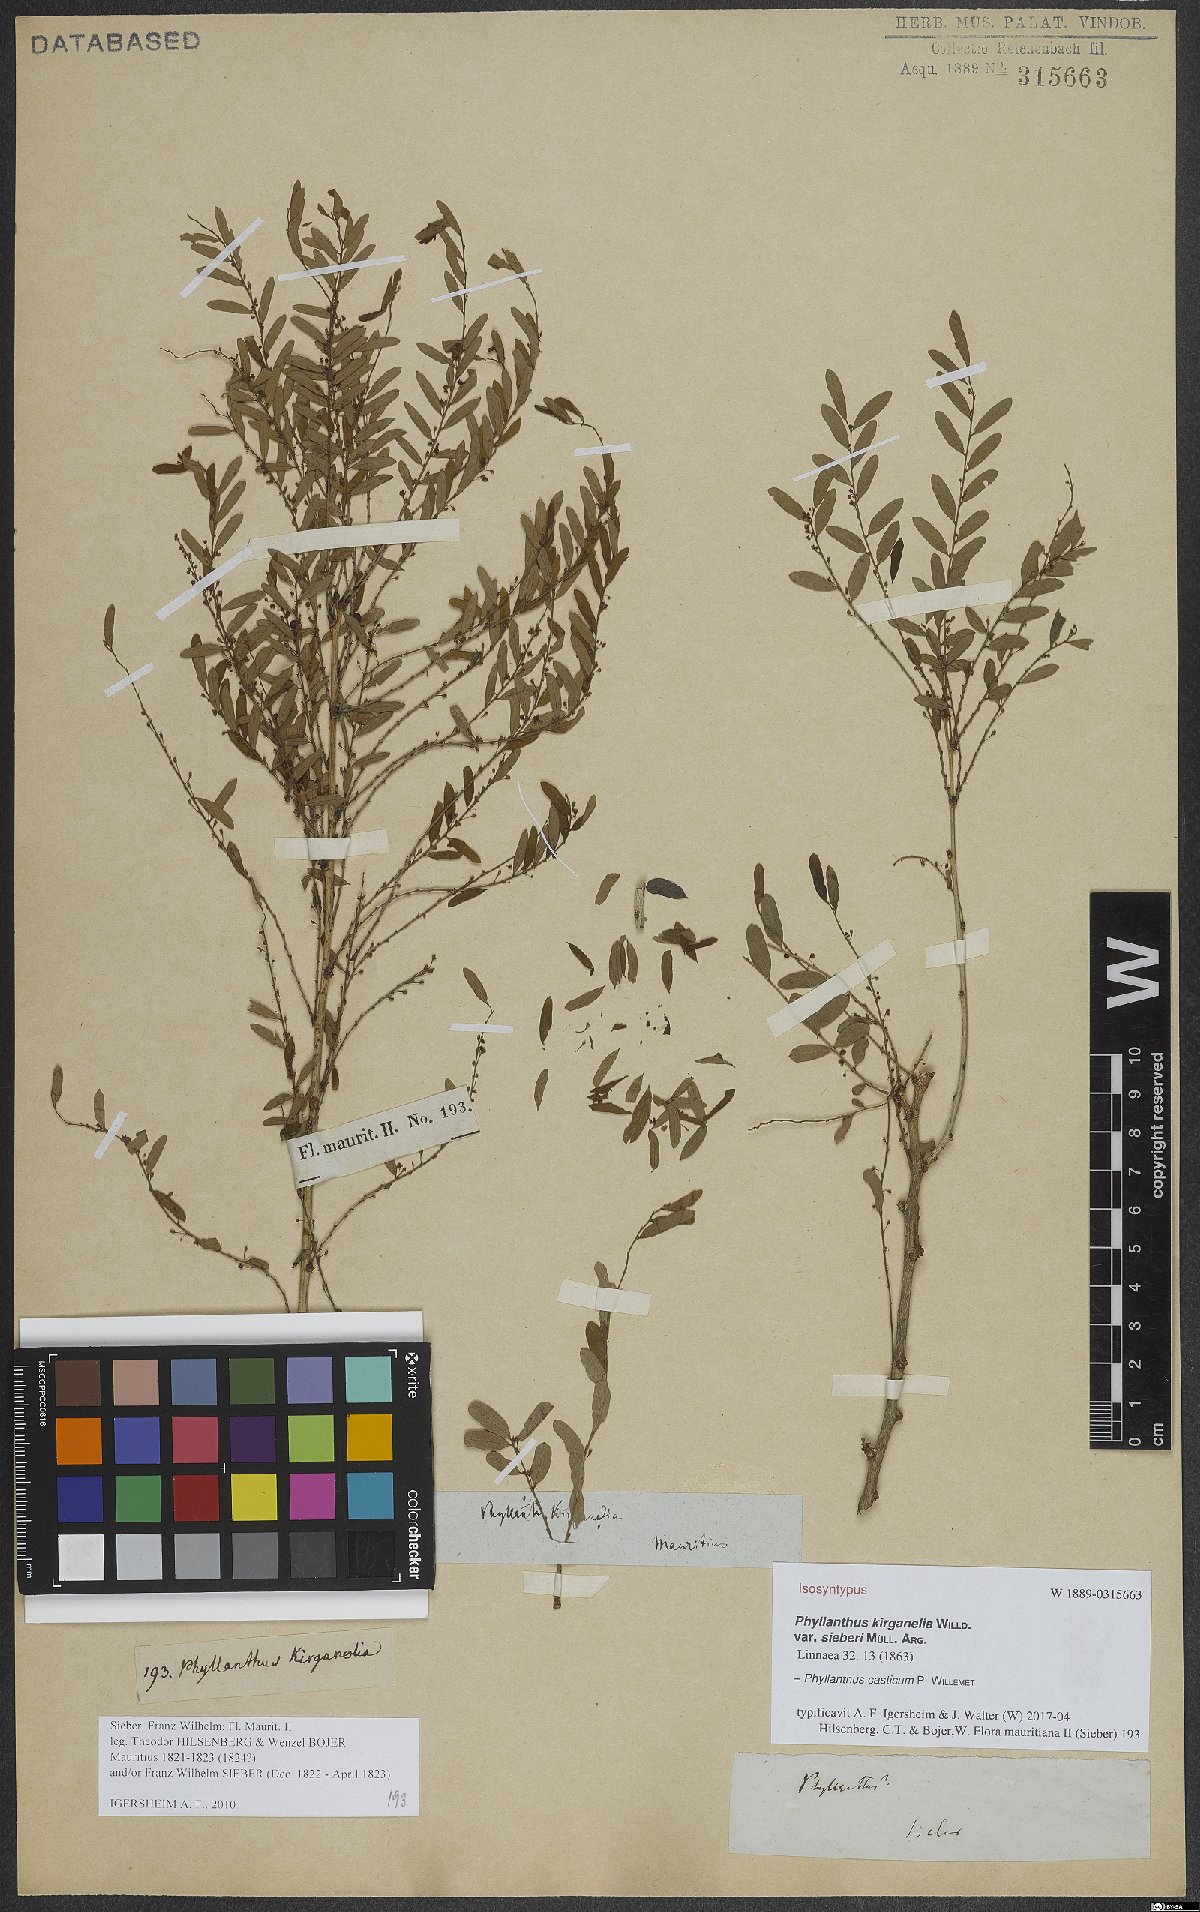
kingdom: Plantae
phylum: Tracheophyta
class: Magnoliopsida
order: Malpighiales
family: Phyllanthaceae
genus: Phyllanthus
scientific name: Phyllanthus casticum
